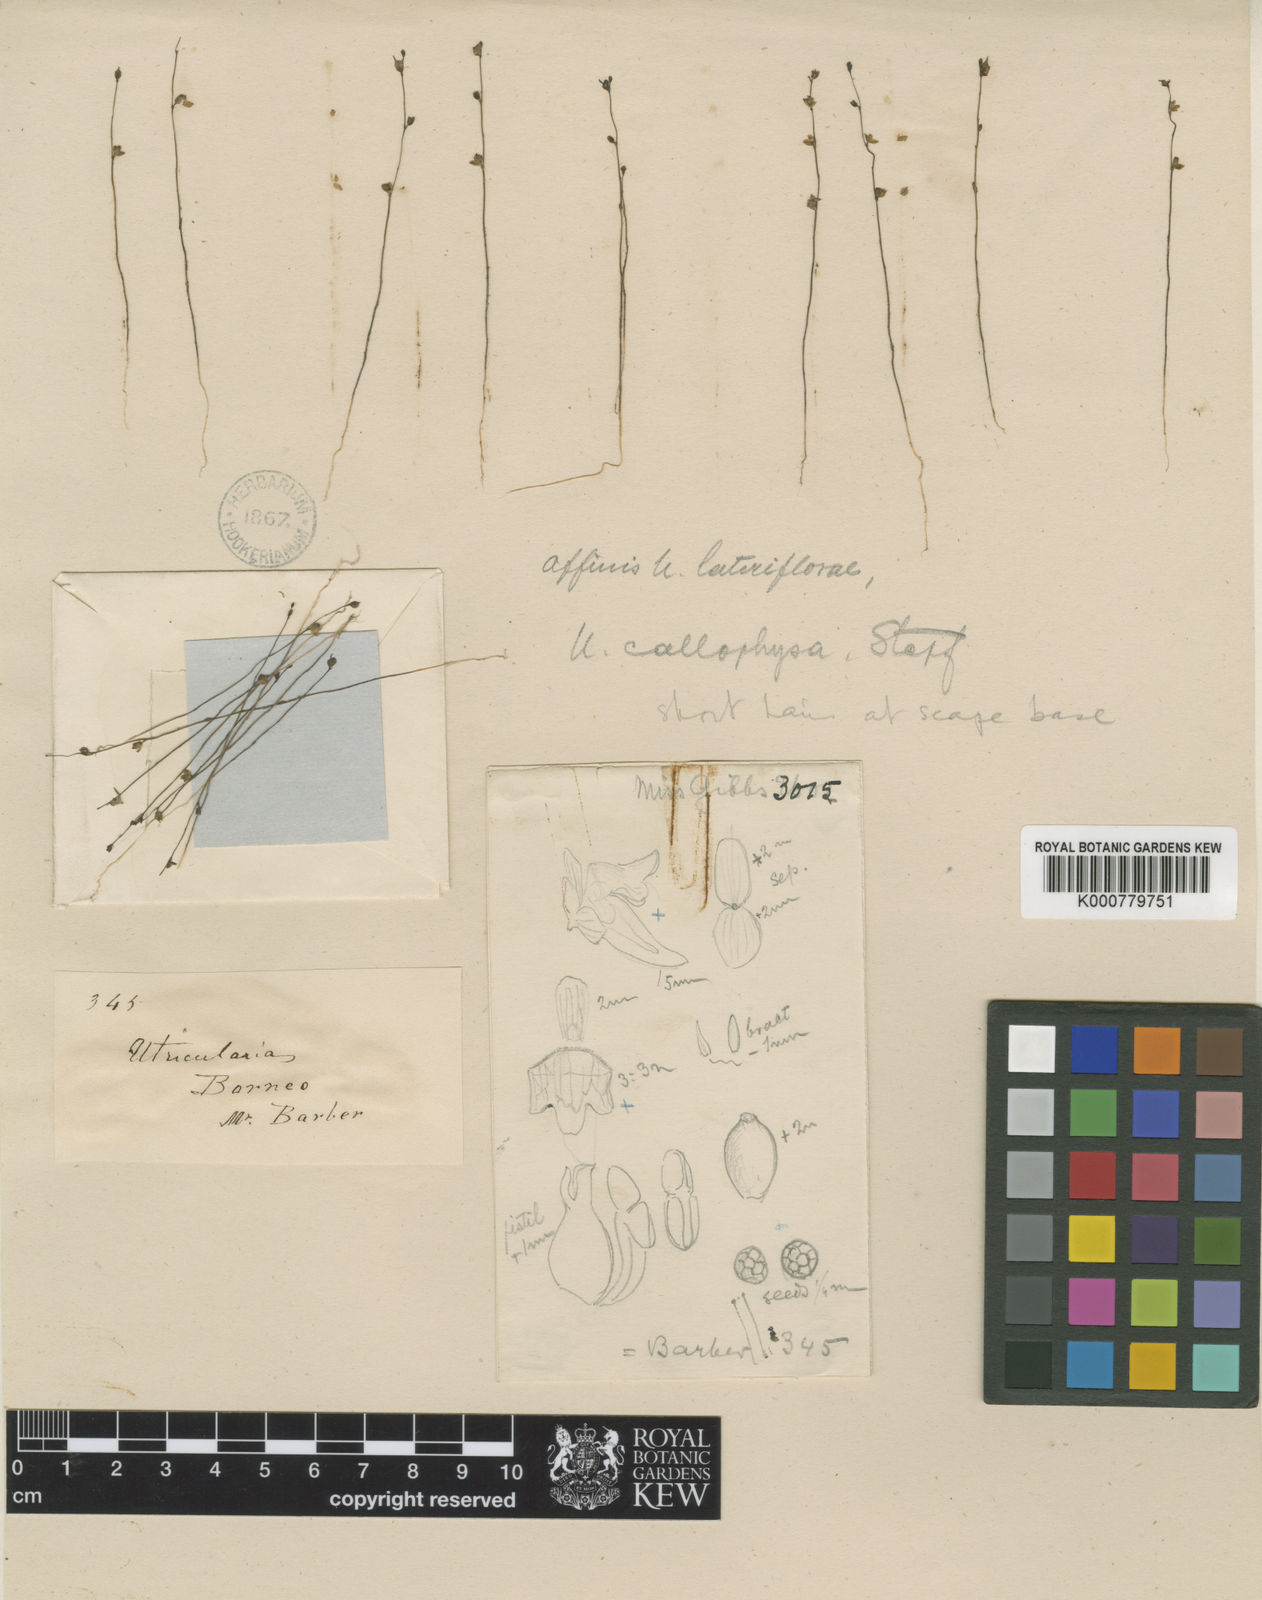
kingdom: Plantae
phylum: Tracheophyta
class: Magnoliopsida
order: Lamiales
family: Lentibulariaceae
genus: Utricularia
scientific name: Utricularia minutissima
